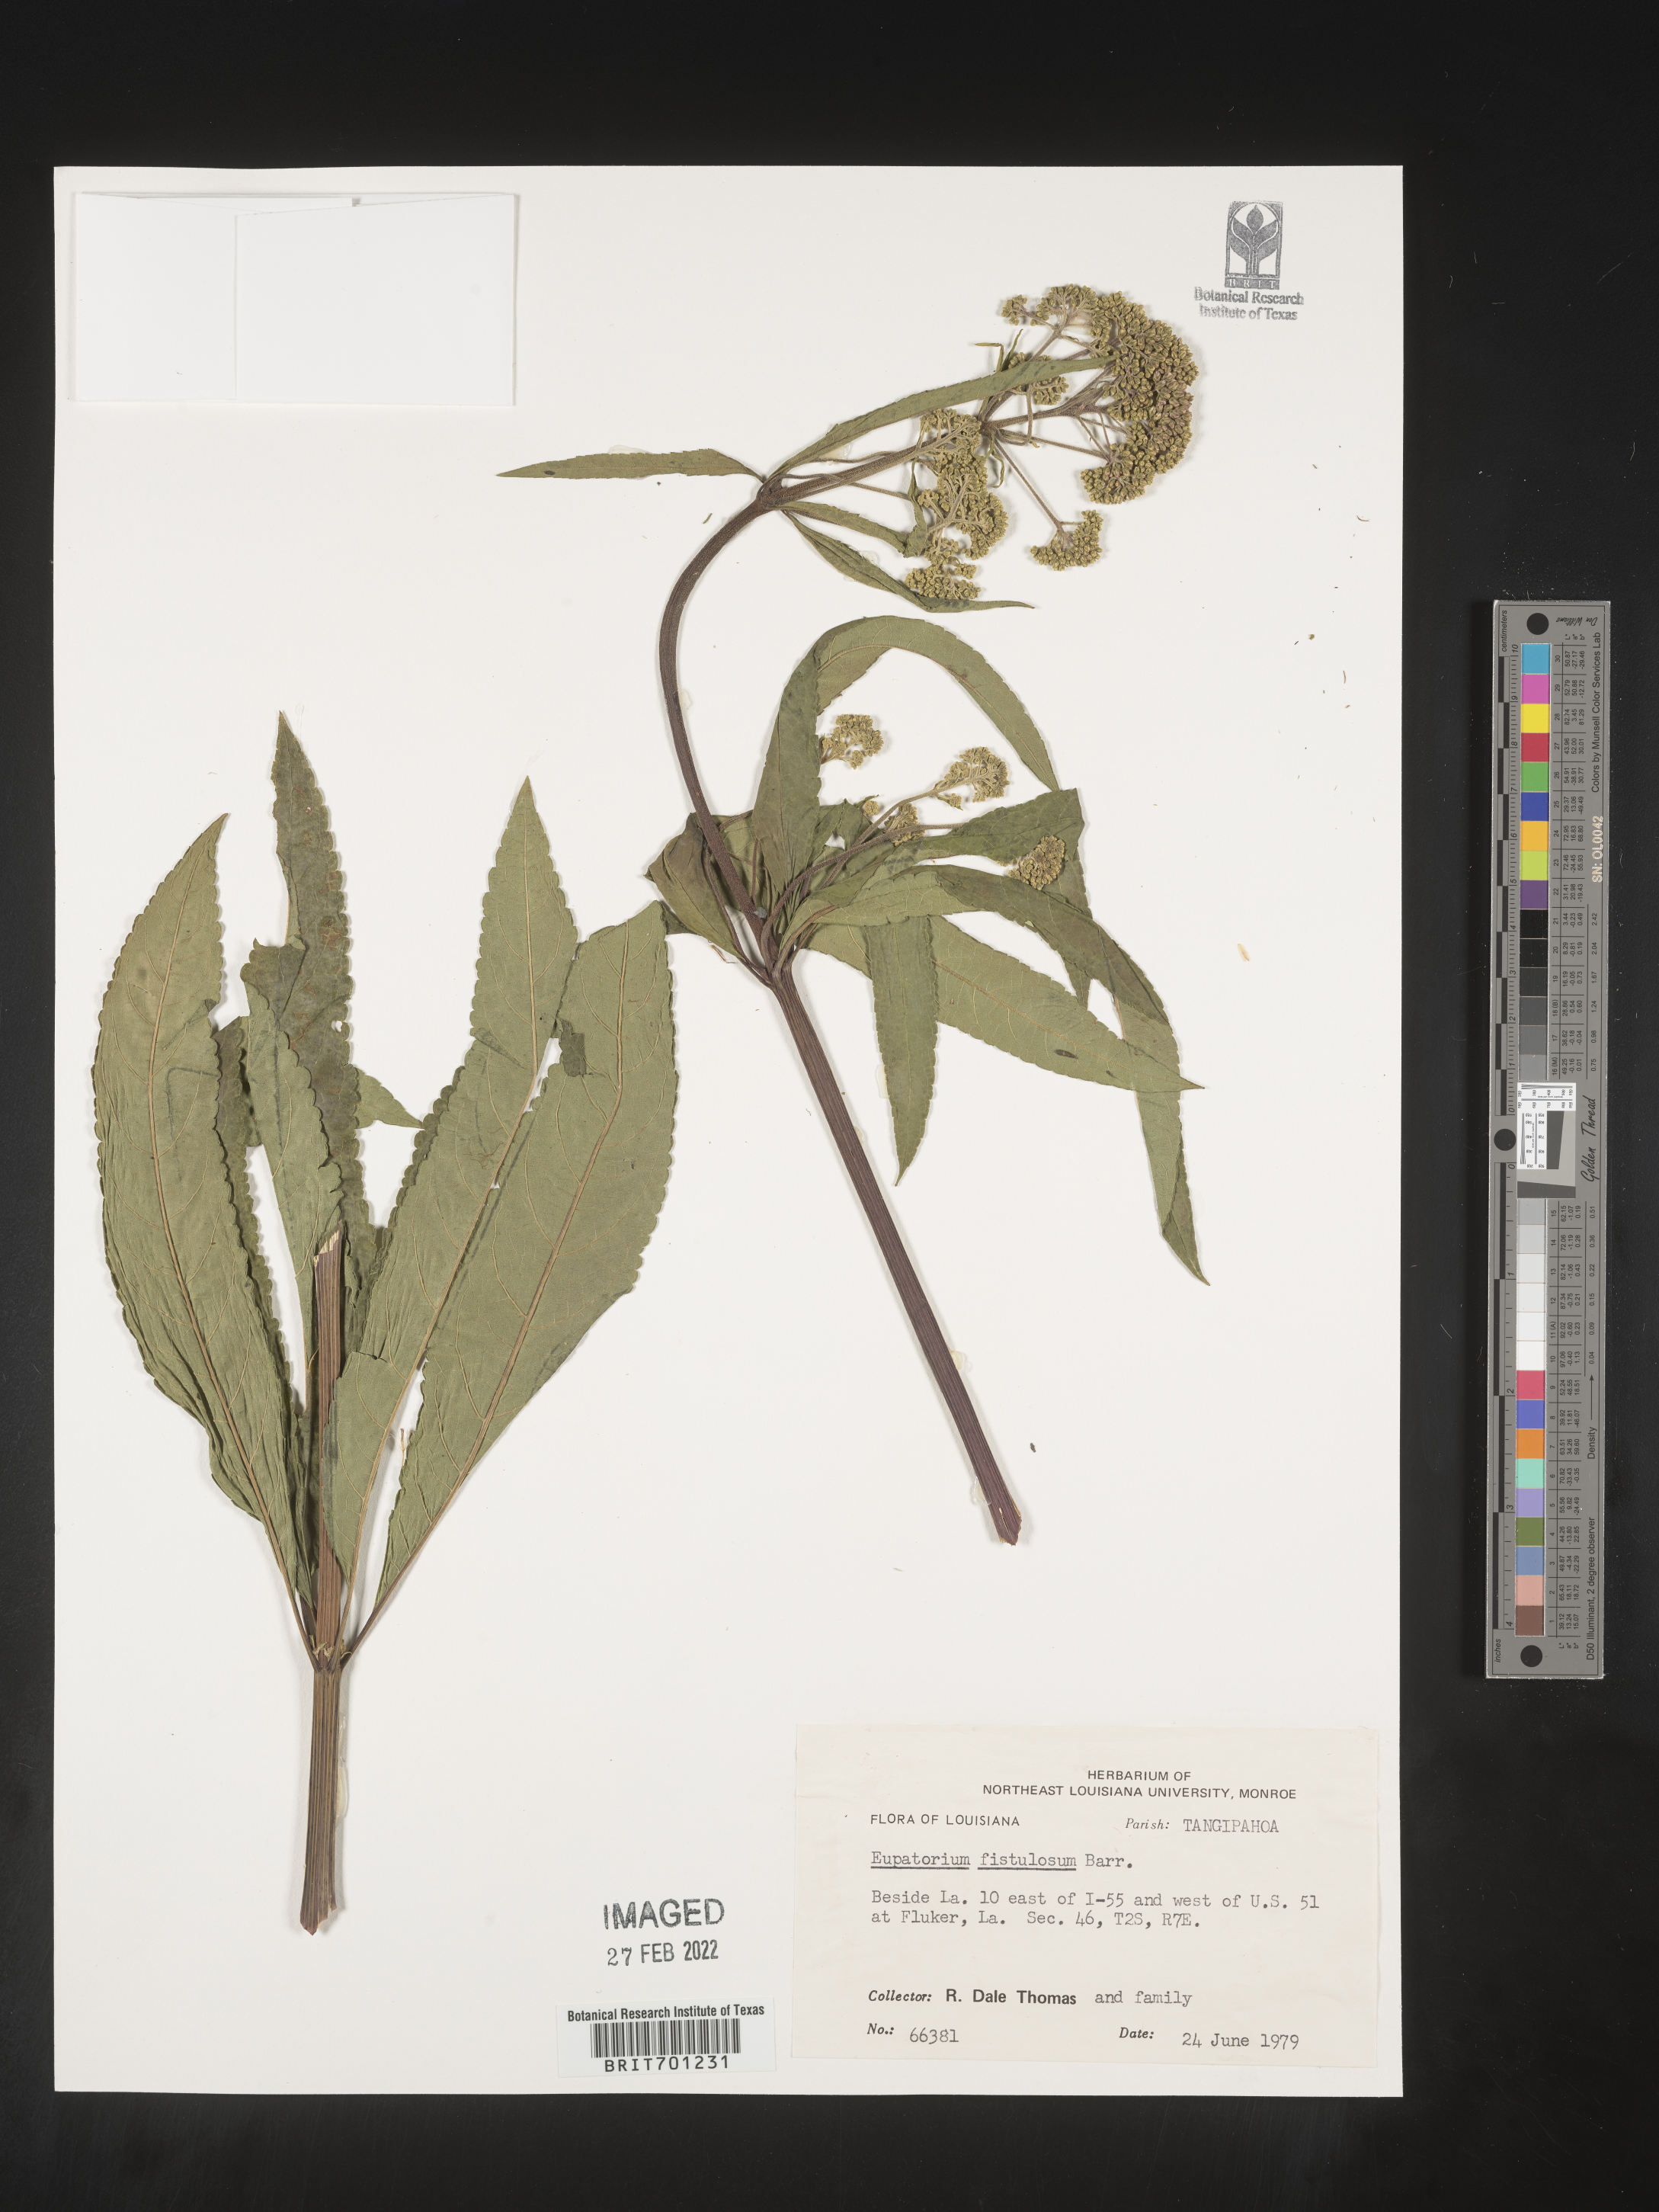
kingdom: Plantae
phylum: Tracheophyta
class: Magnoliopsida
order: Asterales
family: Asteraceae
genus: Eutrochium
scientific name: Eutrochium fistulosum
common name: Trumpetweed
